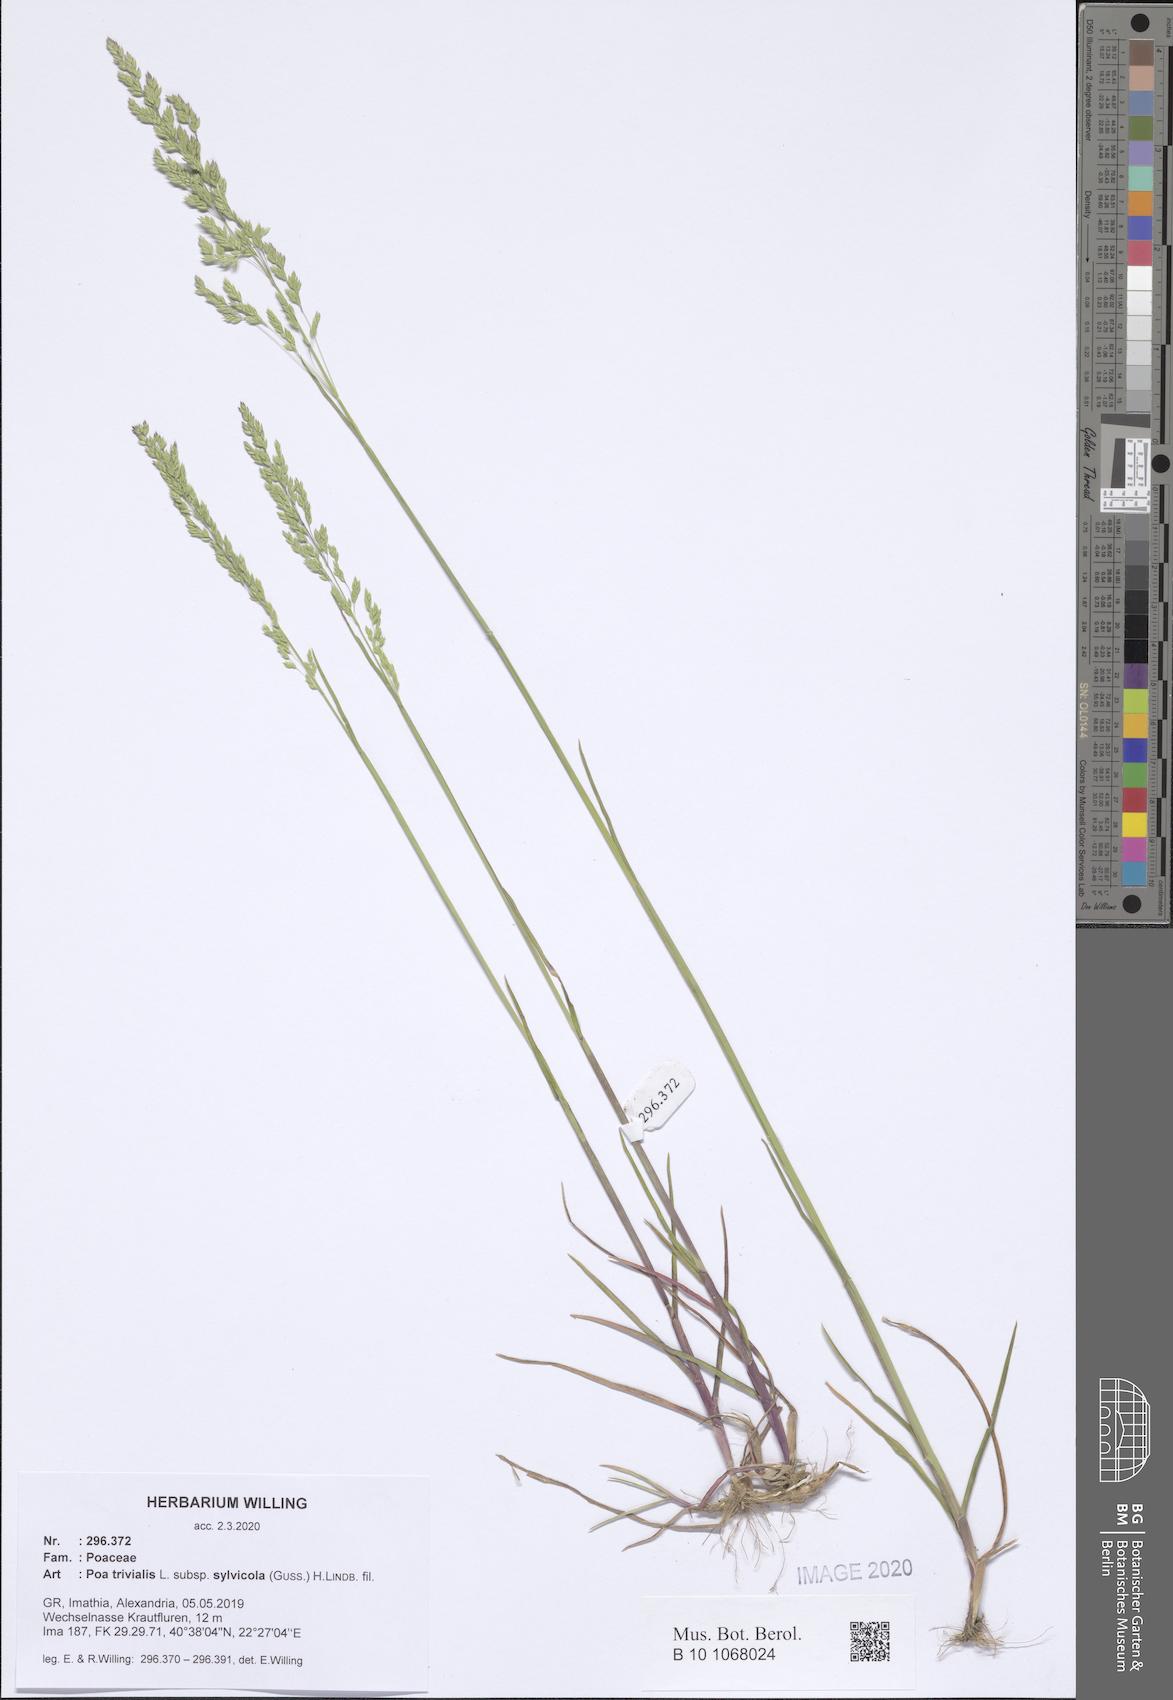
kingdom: Plantae
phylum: Tracheophyta
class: Liliopsida
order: Poales
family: Poaceae
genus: Poa
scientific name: Poa trivialis
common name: Rough bluegrass
